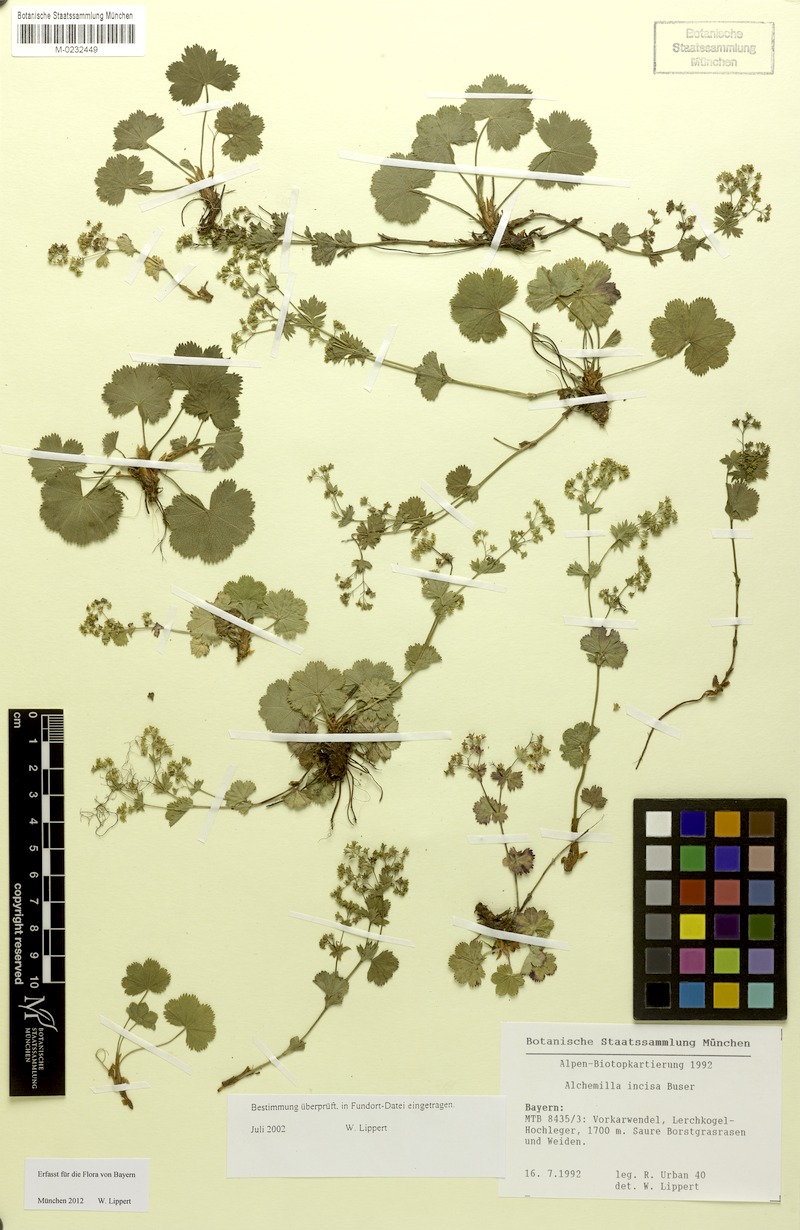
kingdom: Plantae
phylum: Tracheophyta
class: Magnoliopsida
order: Rosales
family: Rosaceae
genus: Alchemilla
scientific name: Alchemilla incisa
